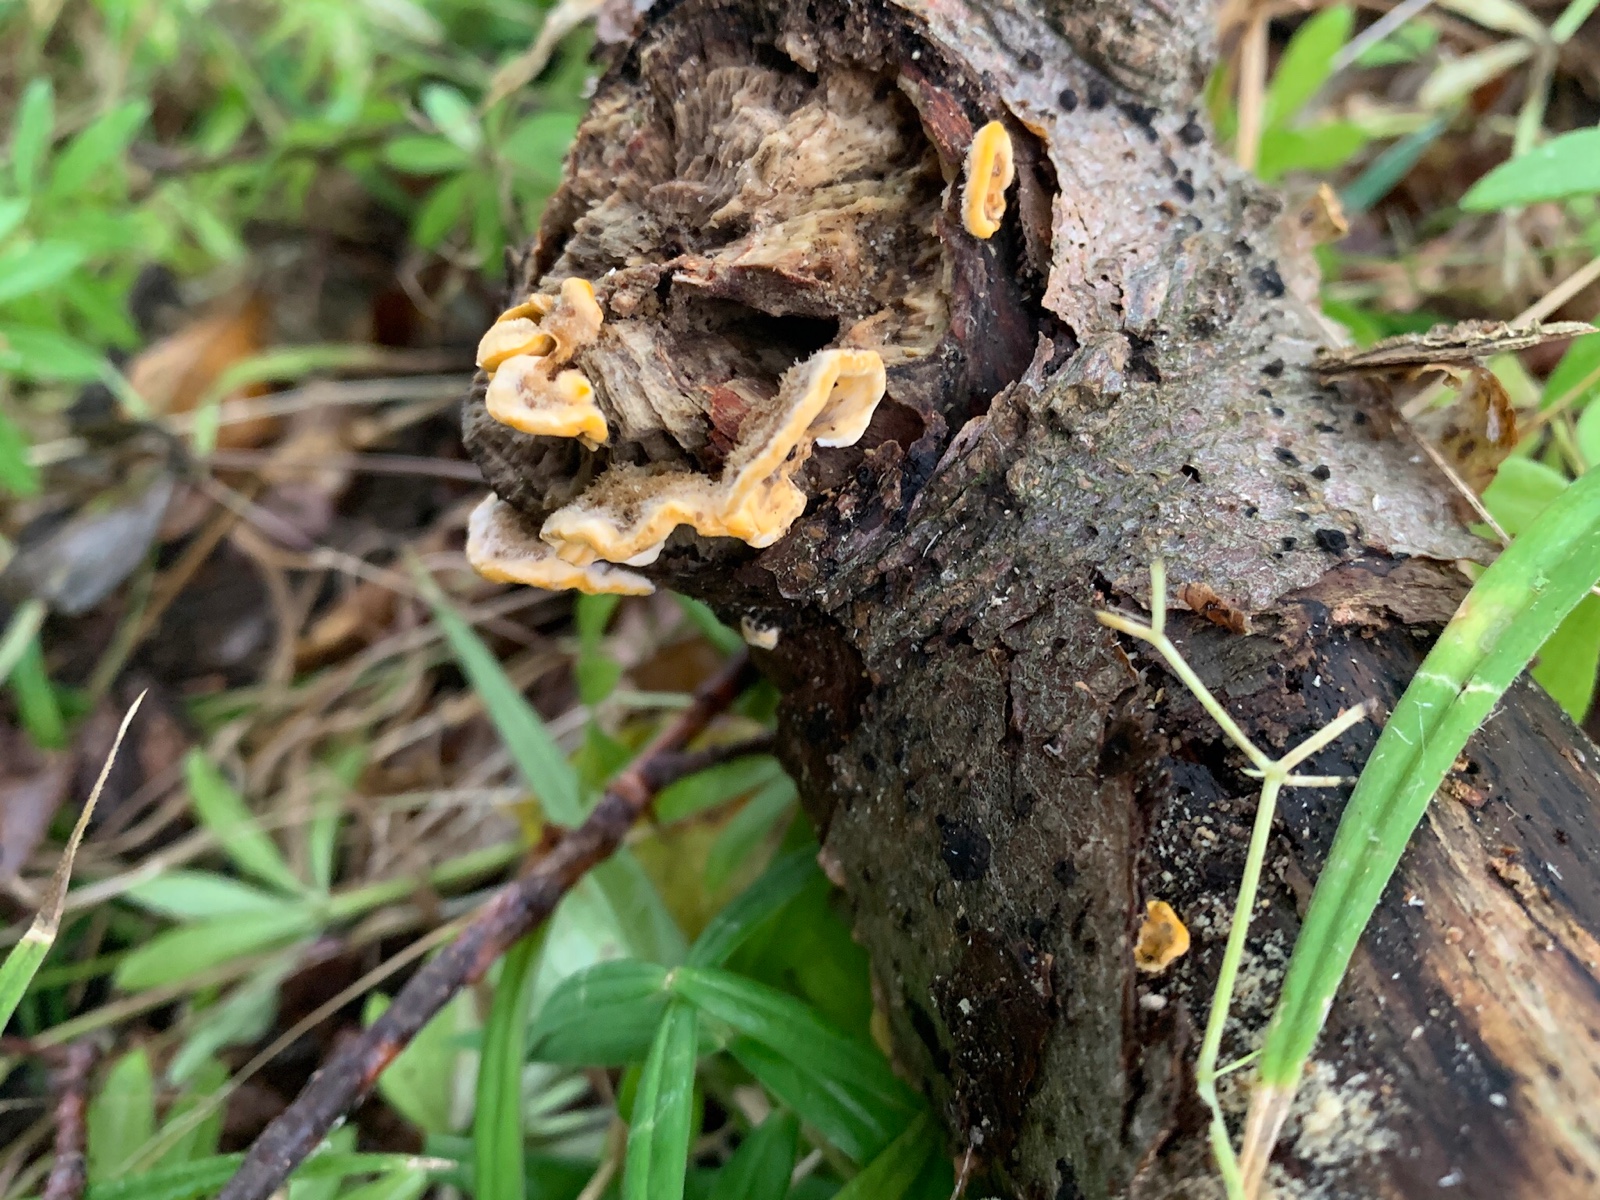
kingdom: Fungi
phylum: Basidiomycota
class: Agaricomycetes
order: Russulales
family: Stereaceae
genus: Stereum
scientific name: Stereum hirsutum
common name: håret lædersvamp
